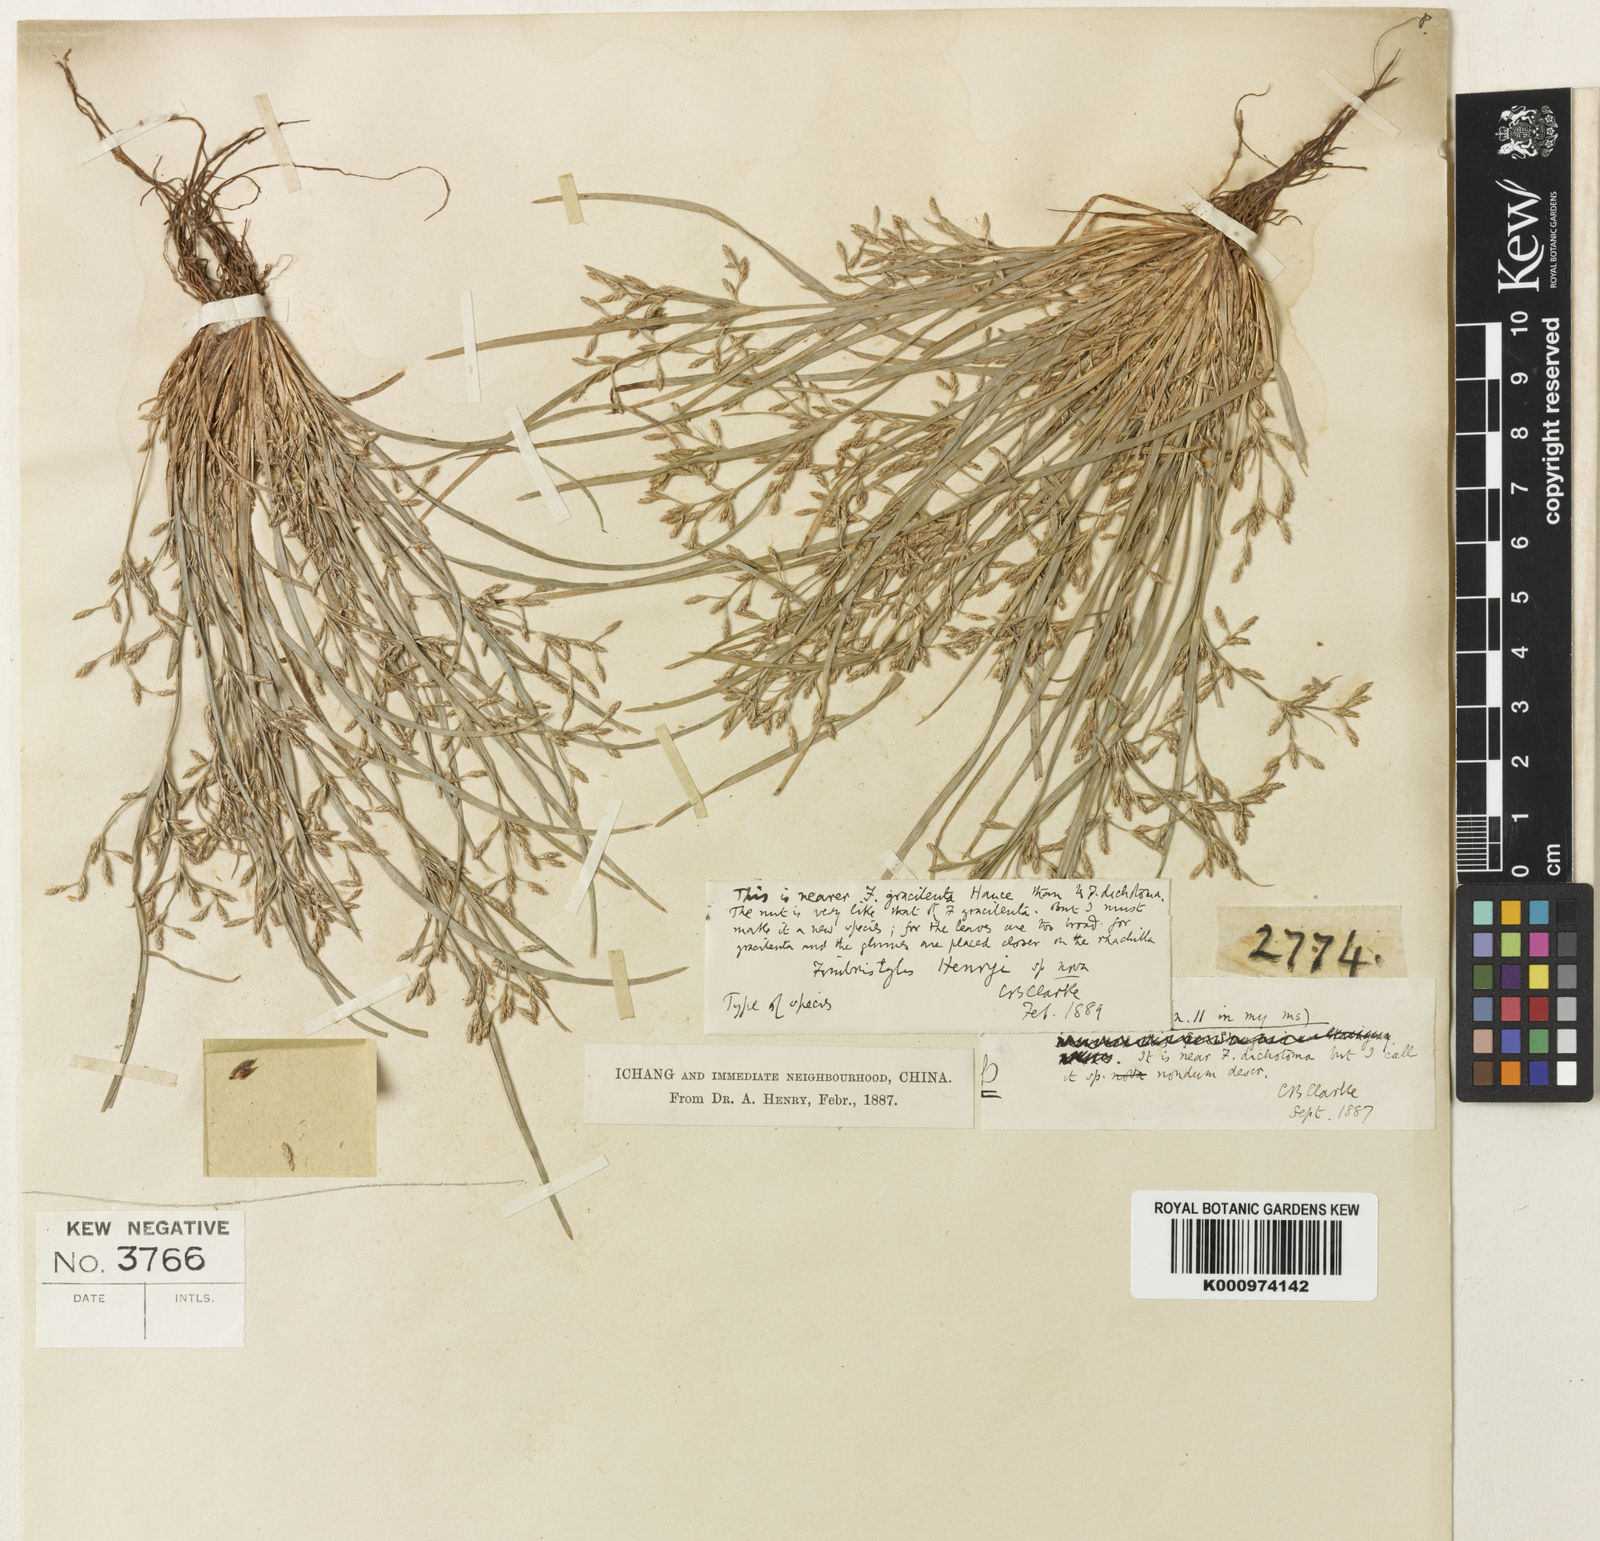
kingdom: Plantae
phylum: Tracheophyta
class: Liliopsida
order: Poales
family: Cyperaceae
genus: Fimbristylis
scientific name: Fimbristylis henryi
